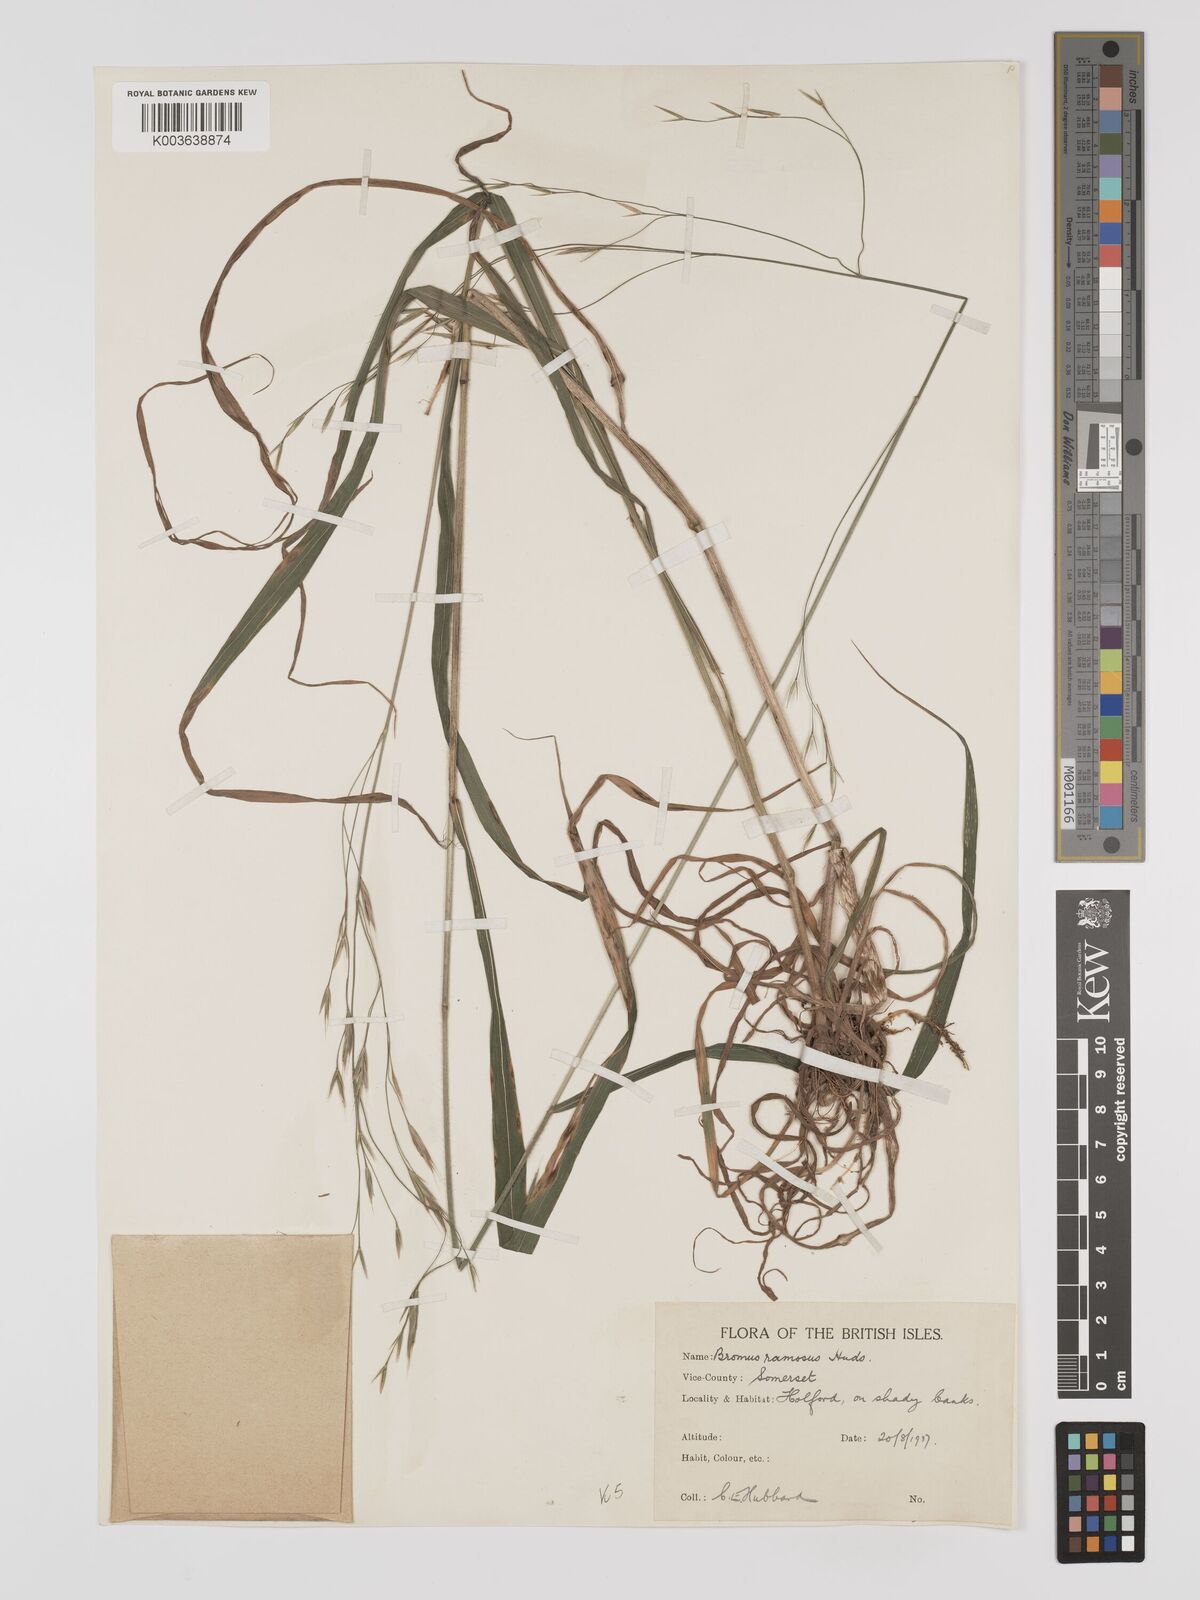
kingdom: Plantae
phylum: Tracheophyta
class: Liliopsida
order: Poales
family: Poaceae
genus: Brachypodium
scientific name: Brachypodium retusum
